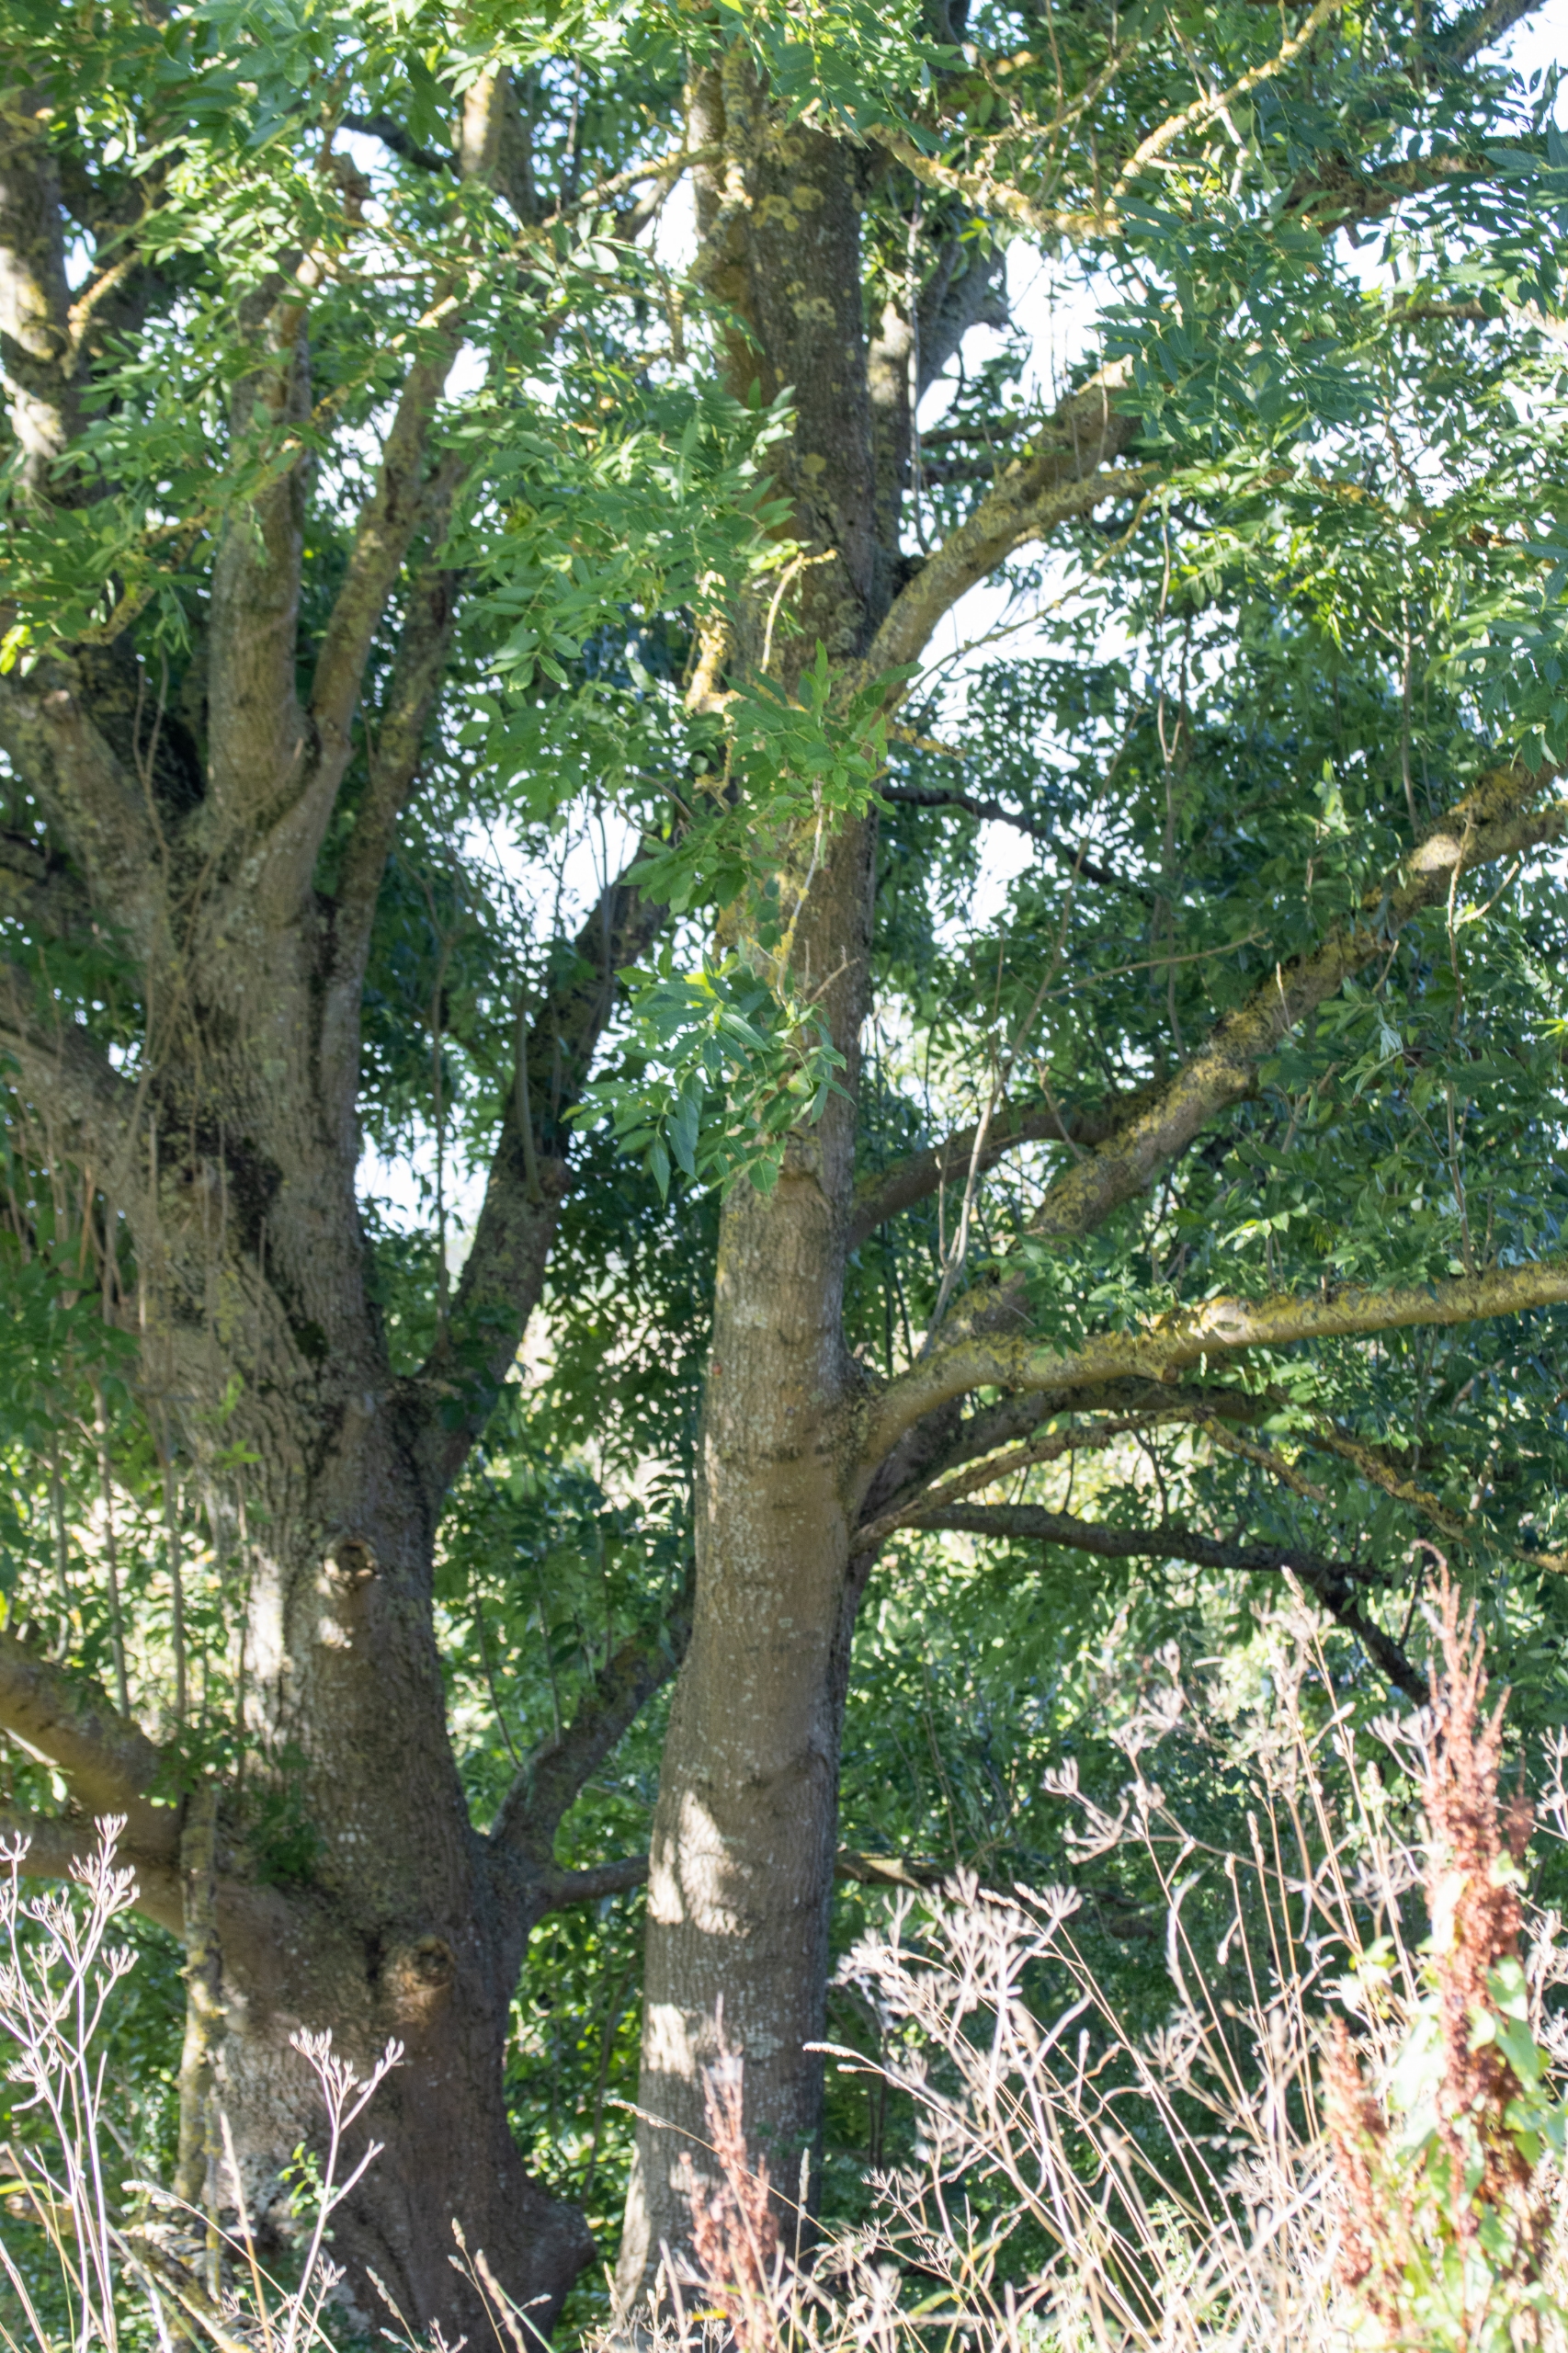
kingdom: Plantae
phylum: Tracheophyta
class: Magnoliopsida
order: Lamiales
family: Oleaceae
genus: Fraxinus
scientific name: Fraxinus excelsior
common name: Ask
